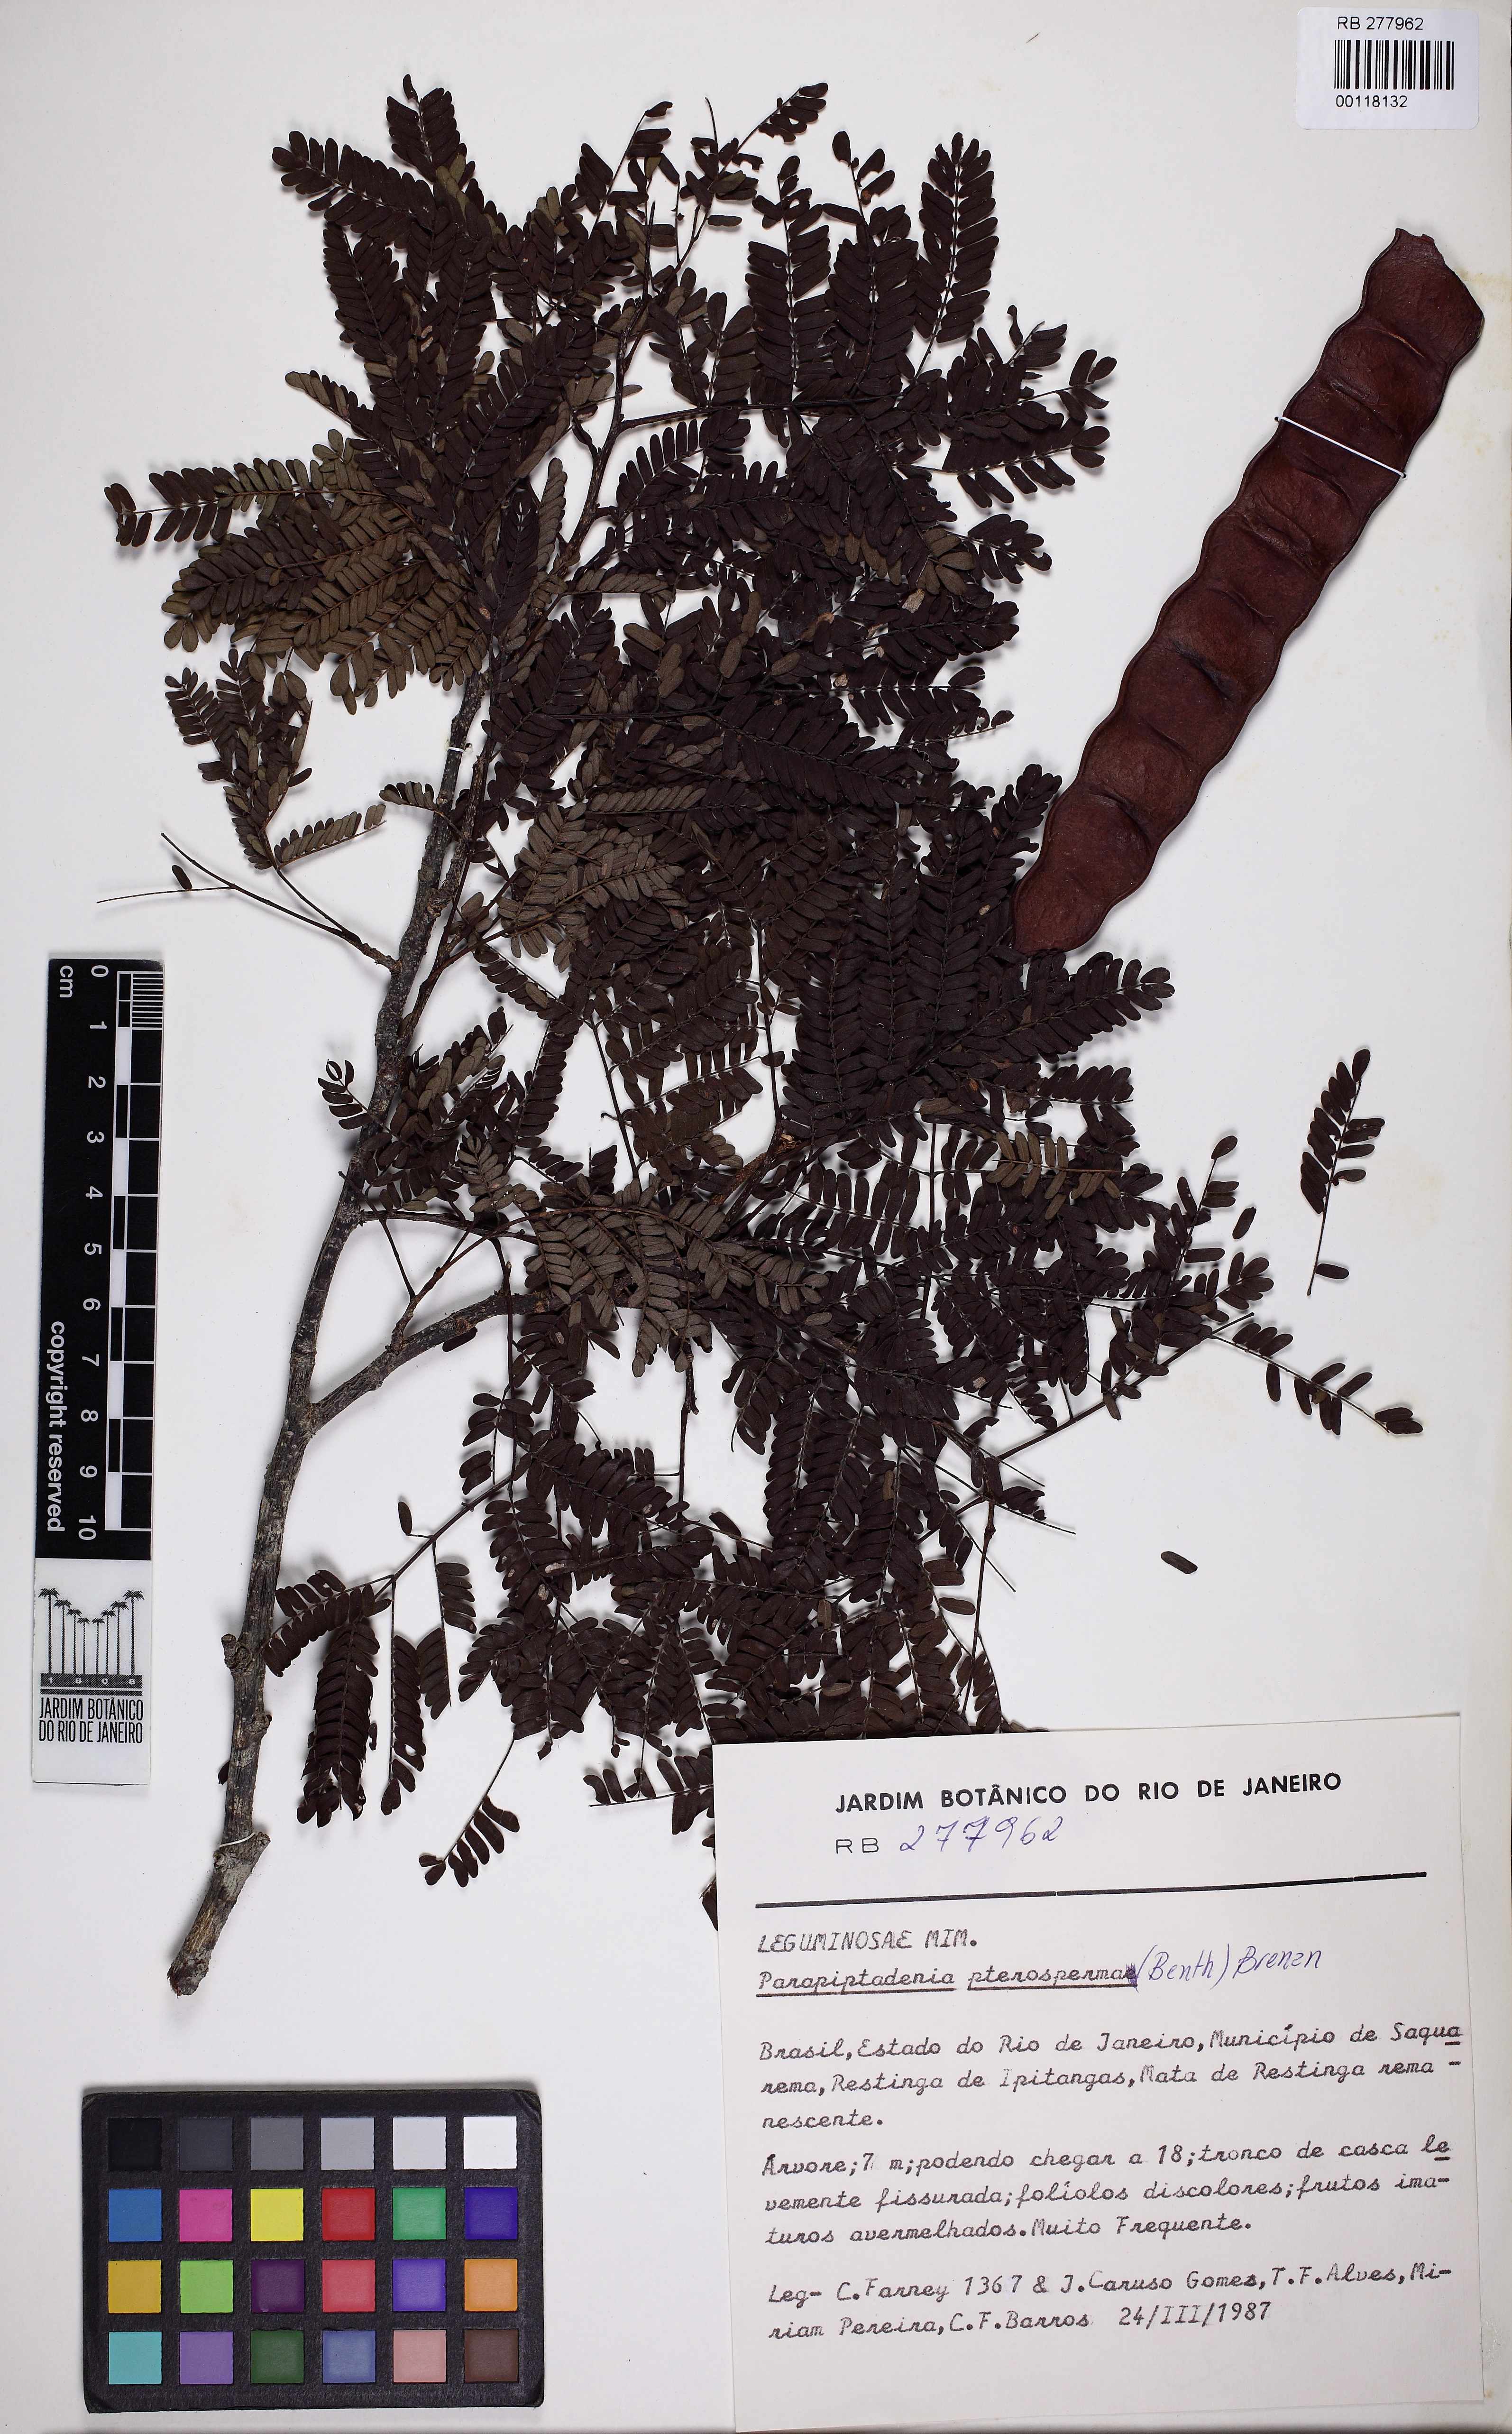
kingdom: Plantae
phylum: Tracheophyta
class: Magnoliopsida
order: Fabales
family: Fabaceae
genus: Parapiptadenia
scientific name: Parapiptadenia pterosperma
